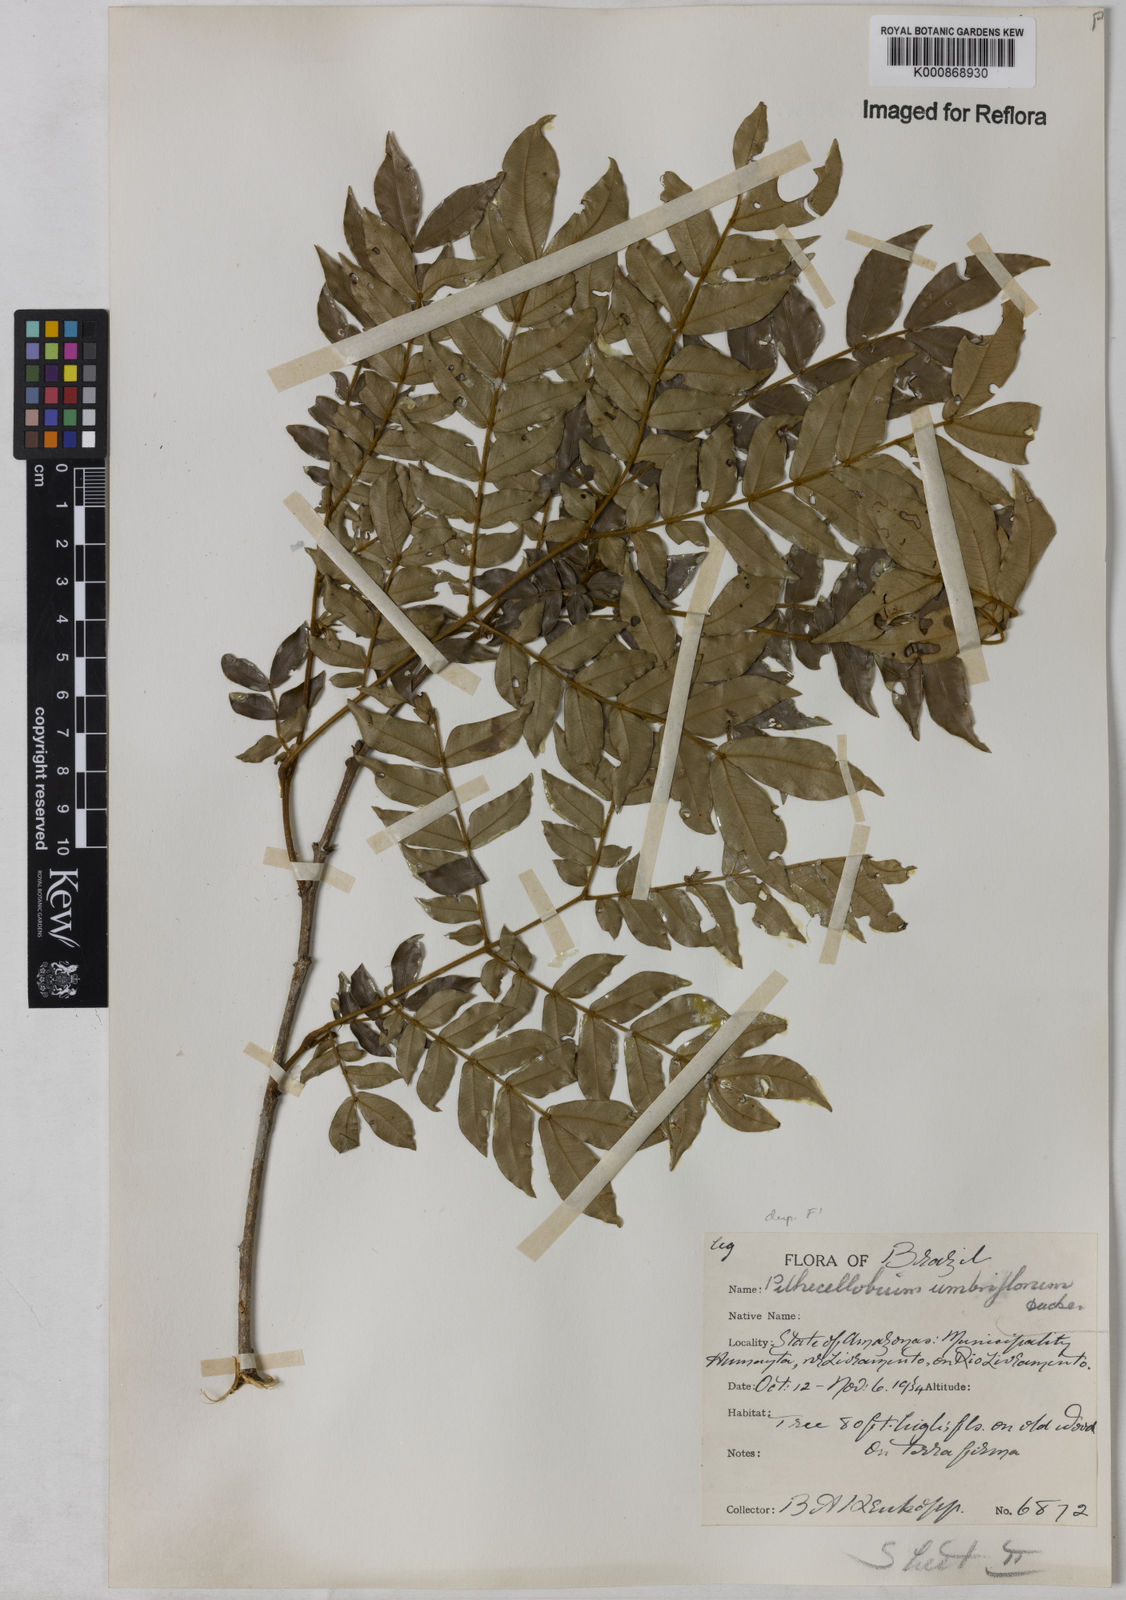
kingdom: Plantae
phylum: Tracheophyta
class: Magnoliopsida
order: Fabales
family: Fabaceae
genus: Zygia
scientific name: Zygia dinizii
